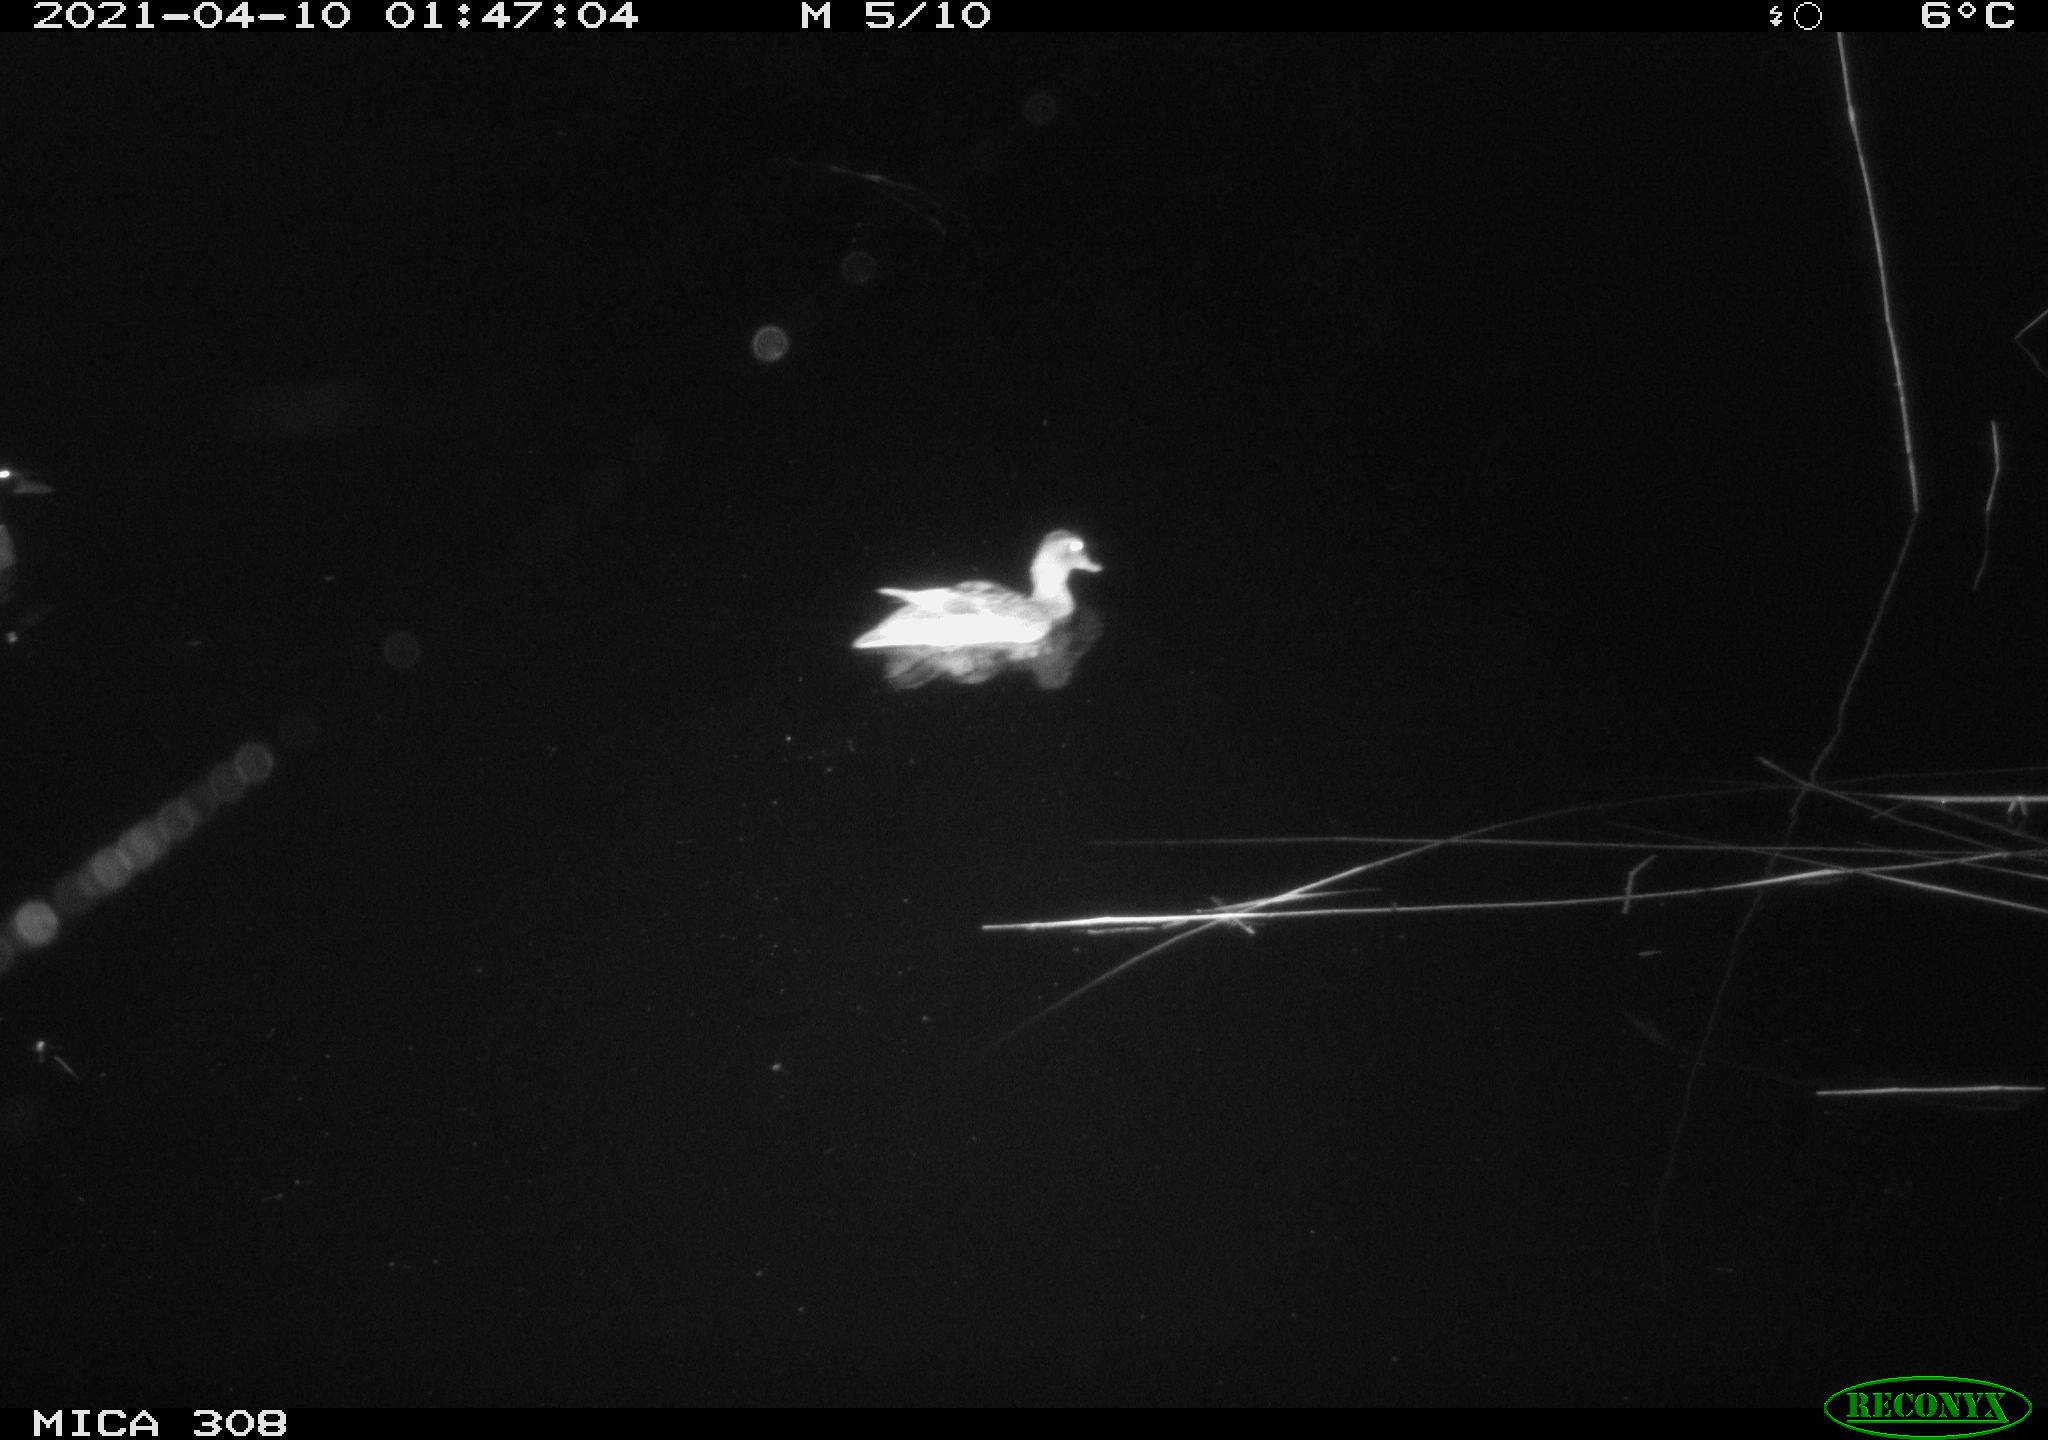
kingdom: Animalia
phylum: Chordata
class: Aves
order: Anseriformes
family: Anatidae
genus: Anas
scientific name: Anas platyrhynchos
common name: Mallard
